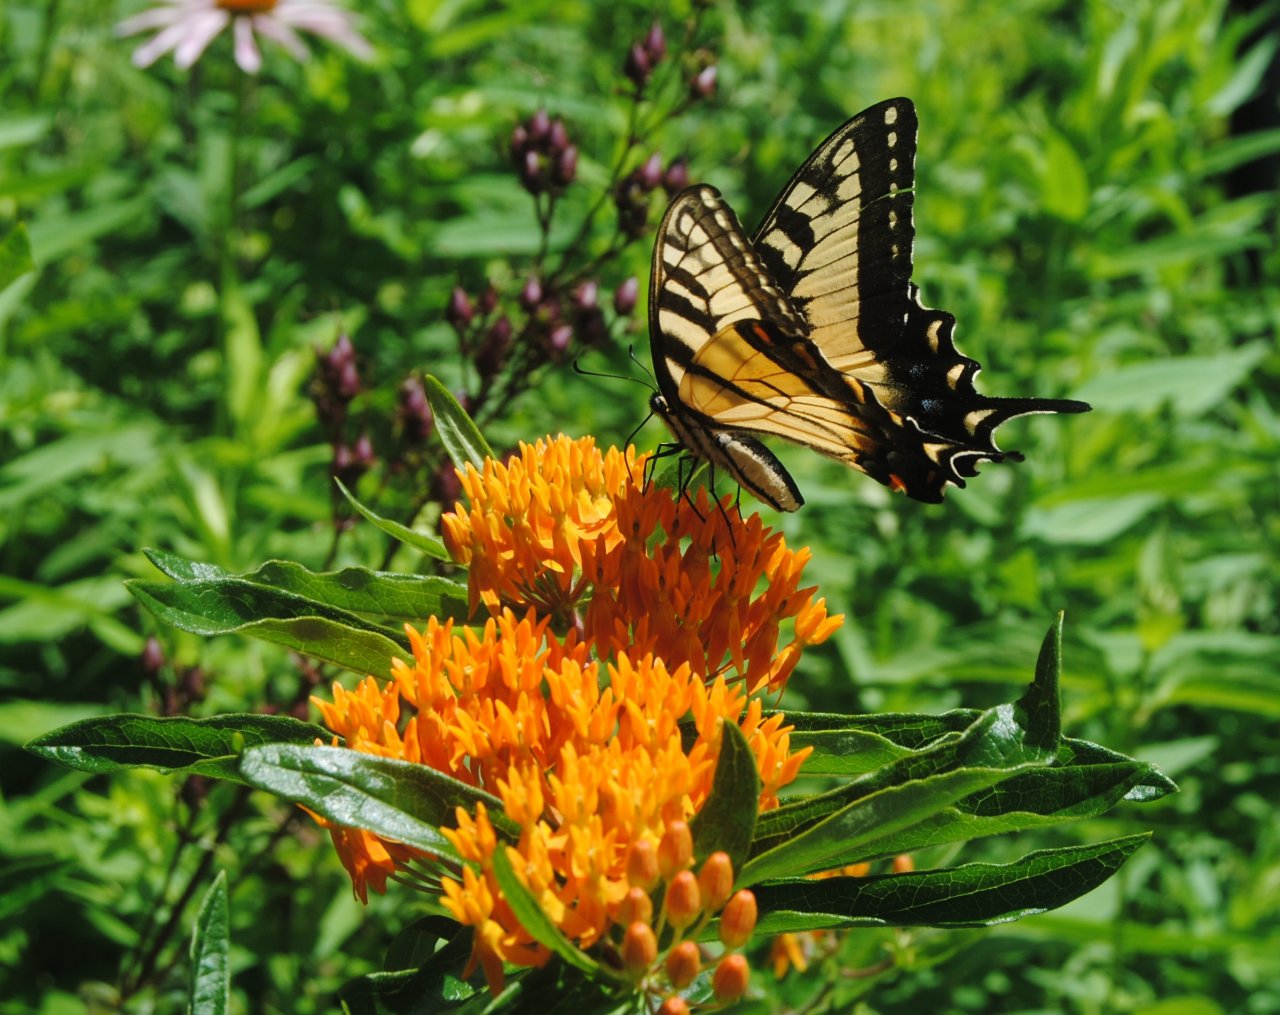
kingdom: Animalia
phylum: Arthropoda
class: Insecta
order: Lepidoptera
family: Papilionidae
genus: Pterourus
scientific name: Pterourus glaucus
